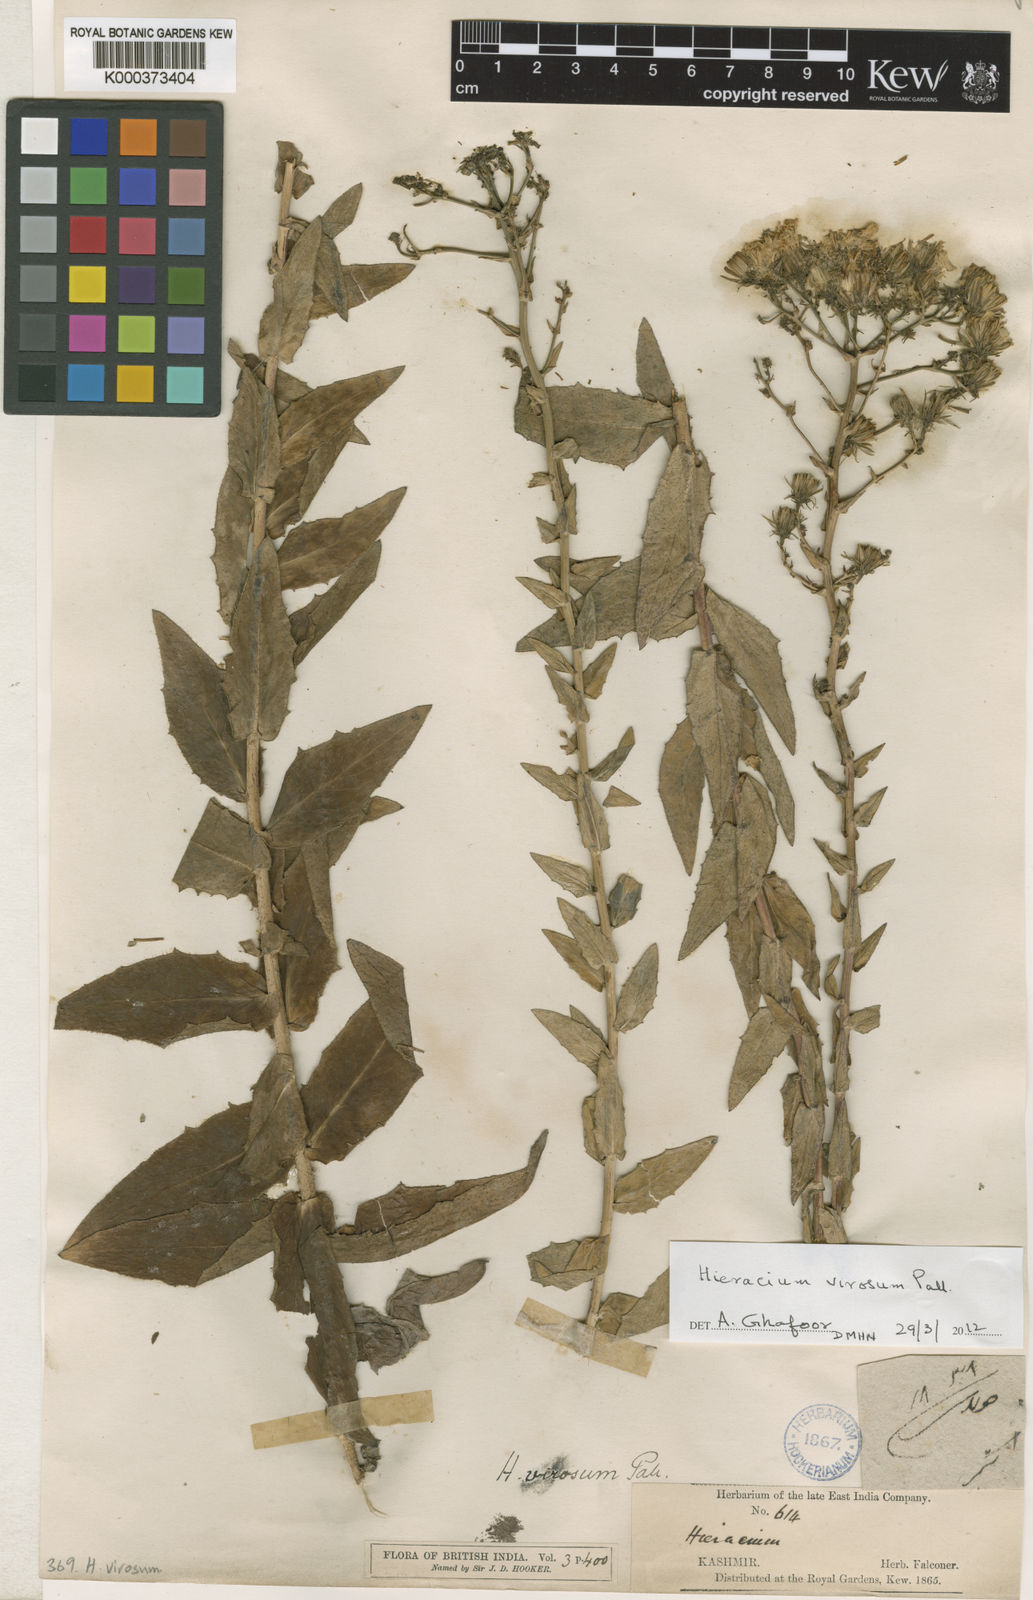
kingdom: Plantae
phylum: Tracheophyta
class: Magnoliopsida
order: Asterales
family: Asteraceae
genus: Hieracium
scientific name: Hieracium virosum
